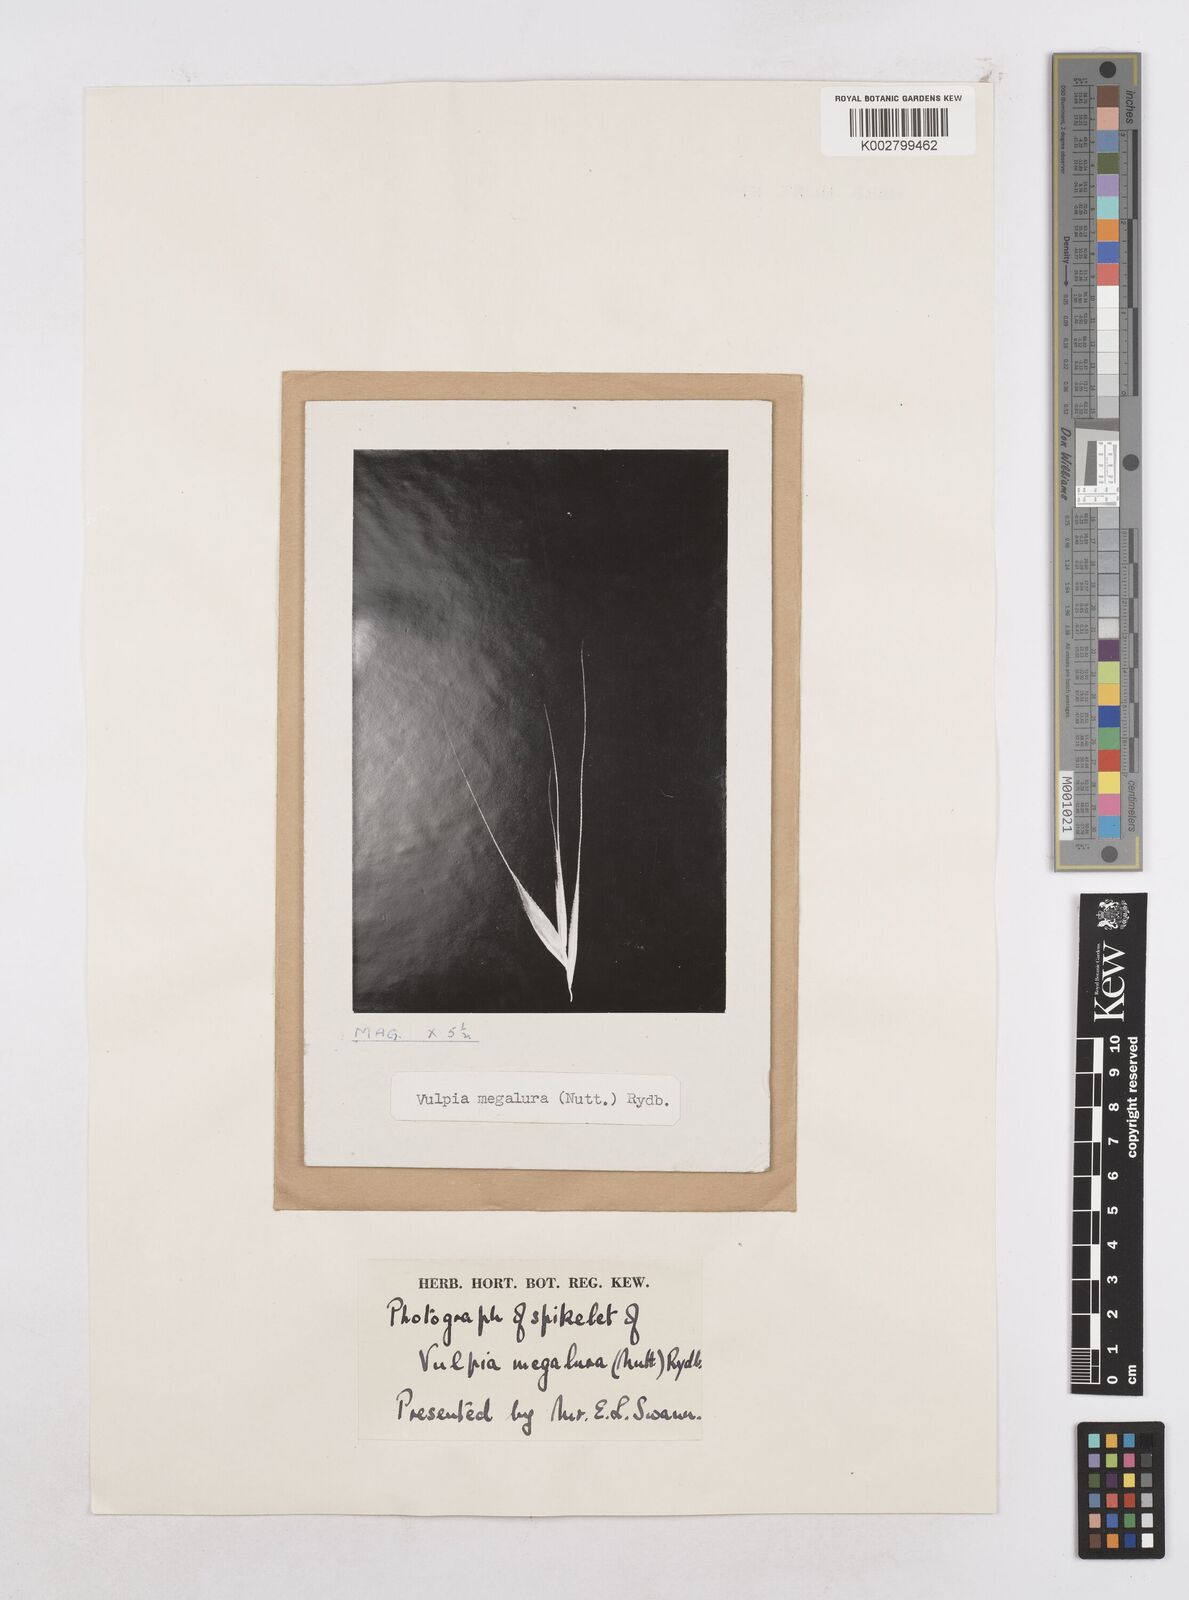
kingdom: Plantae
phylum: Tracheophyta
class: Liliopsida
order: Poales
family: Poaceae
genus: Festuca
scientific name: Festuca myuros
